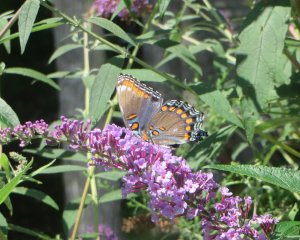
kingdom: Animalia
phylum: Arthropoda
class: Insecta
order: Lepidoptera
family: Nymphalidae
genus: Limenitis
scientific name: Limenitis astyanax
